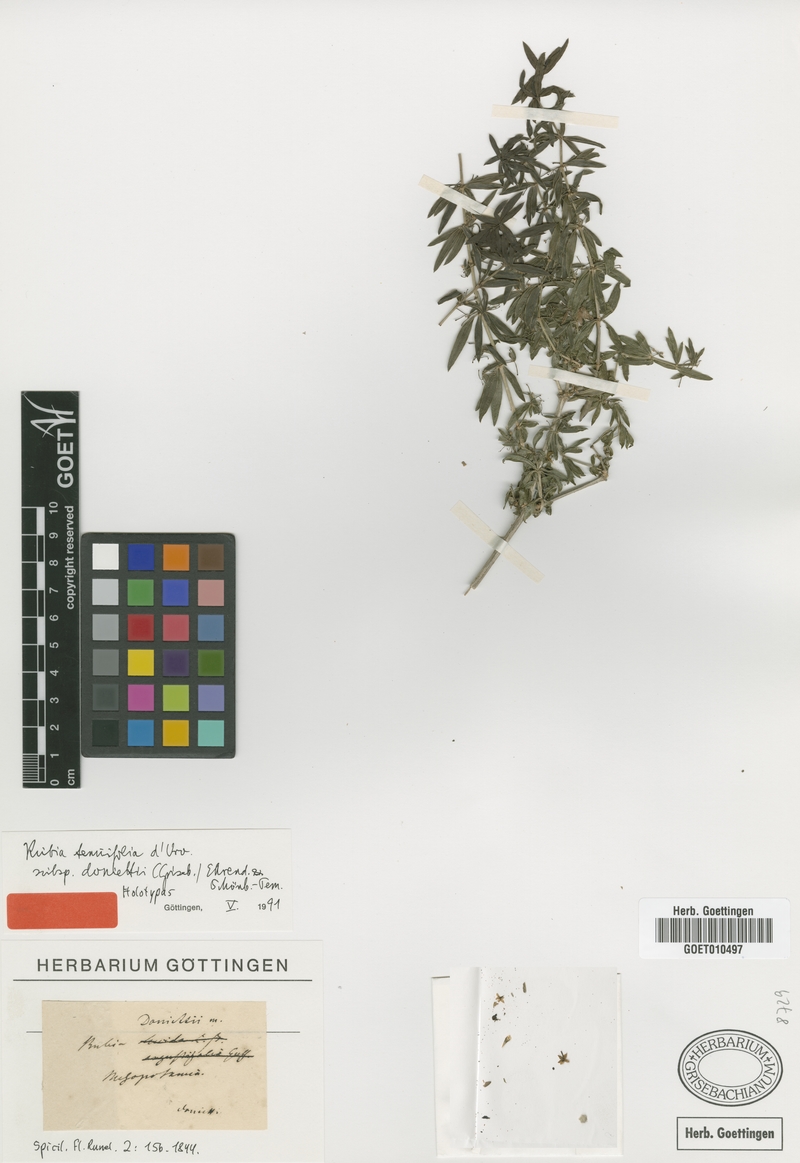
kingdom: Plantae
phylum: Tracheophyta
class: Magnoliopsida
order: Gentianales
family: Rubiaceae
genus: Rubia
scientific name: Rubia tenuifolia
